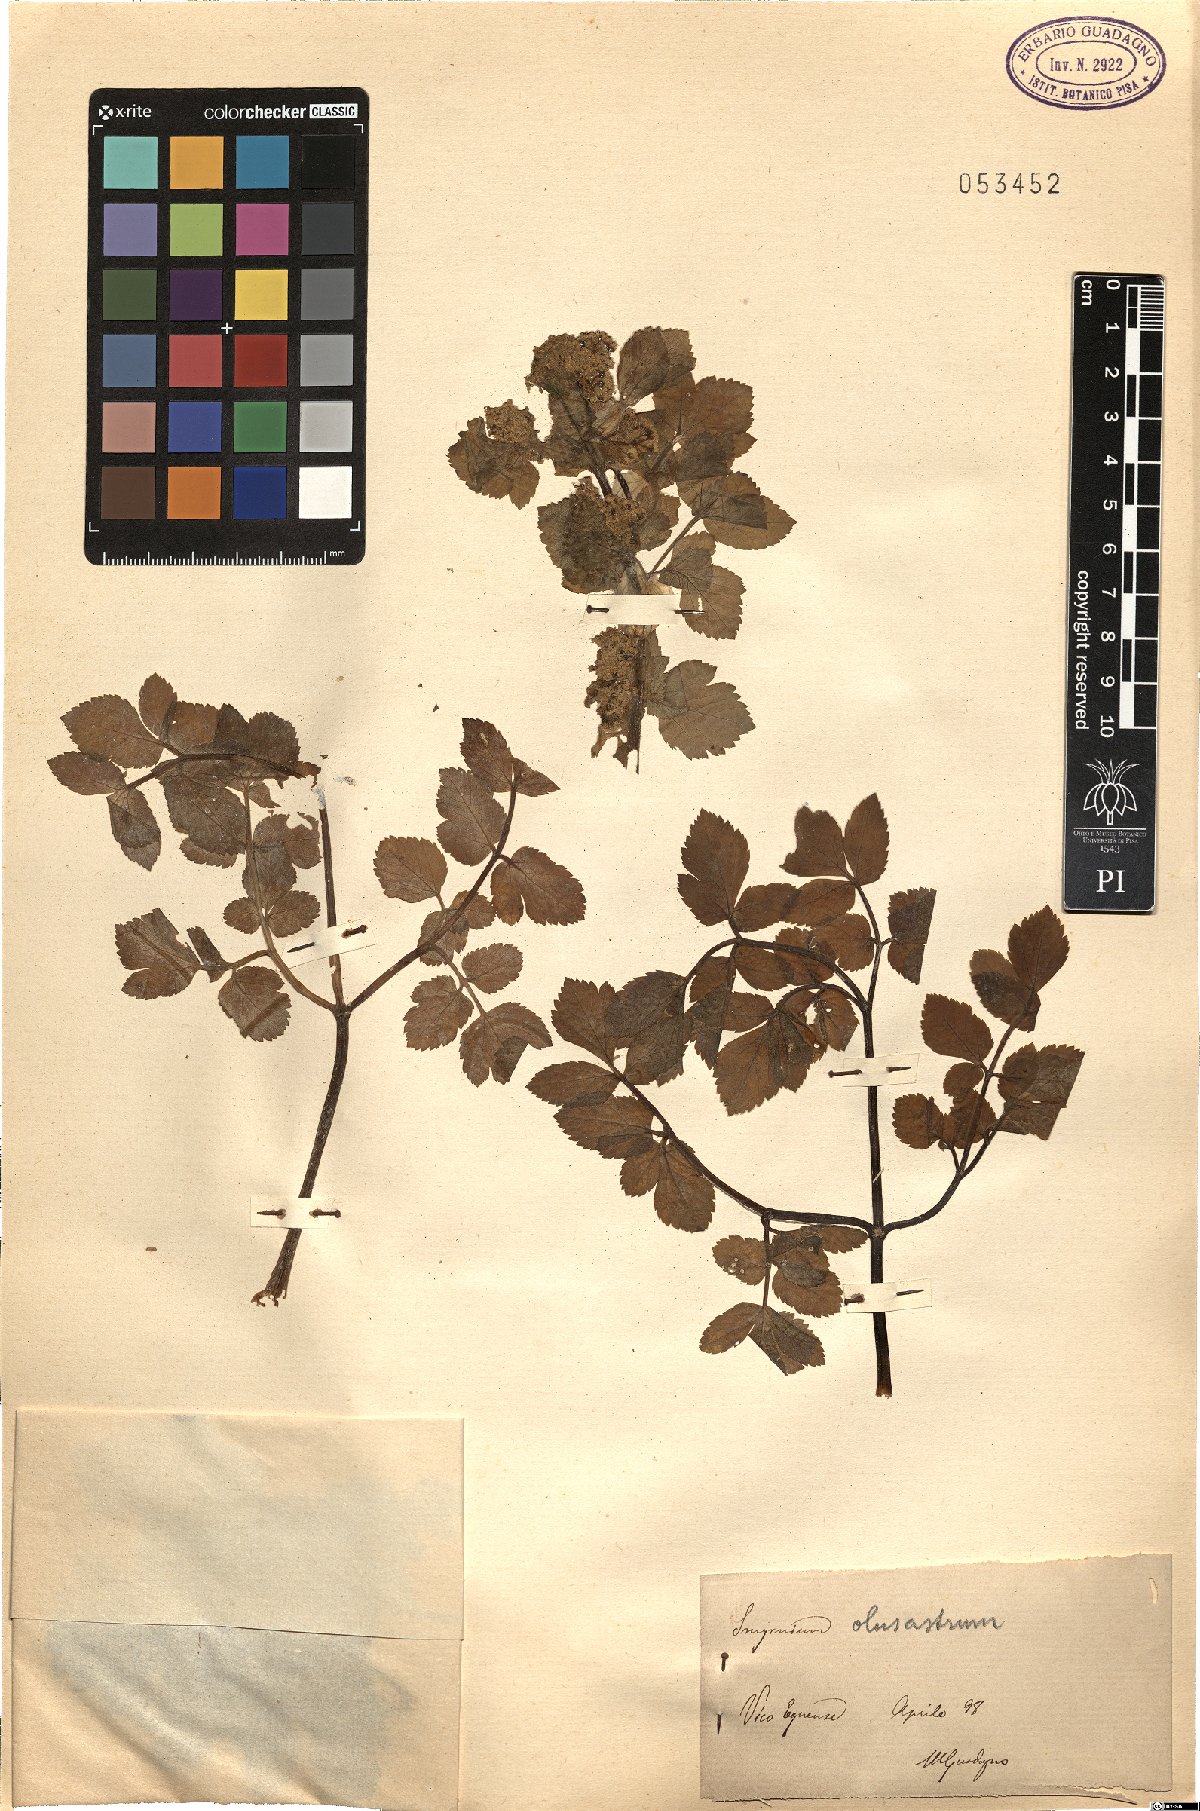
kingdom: Plantae
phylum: Tracheophyta
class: Magnoliopsida
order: Apiales
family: Apiaceae
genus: Smyrnium
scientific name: Smyrnium olusatrum
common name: Alexanders
